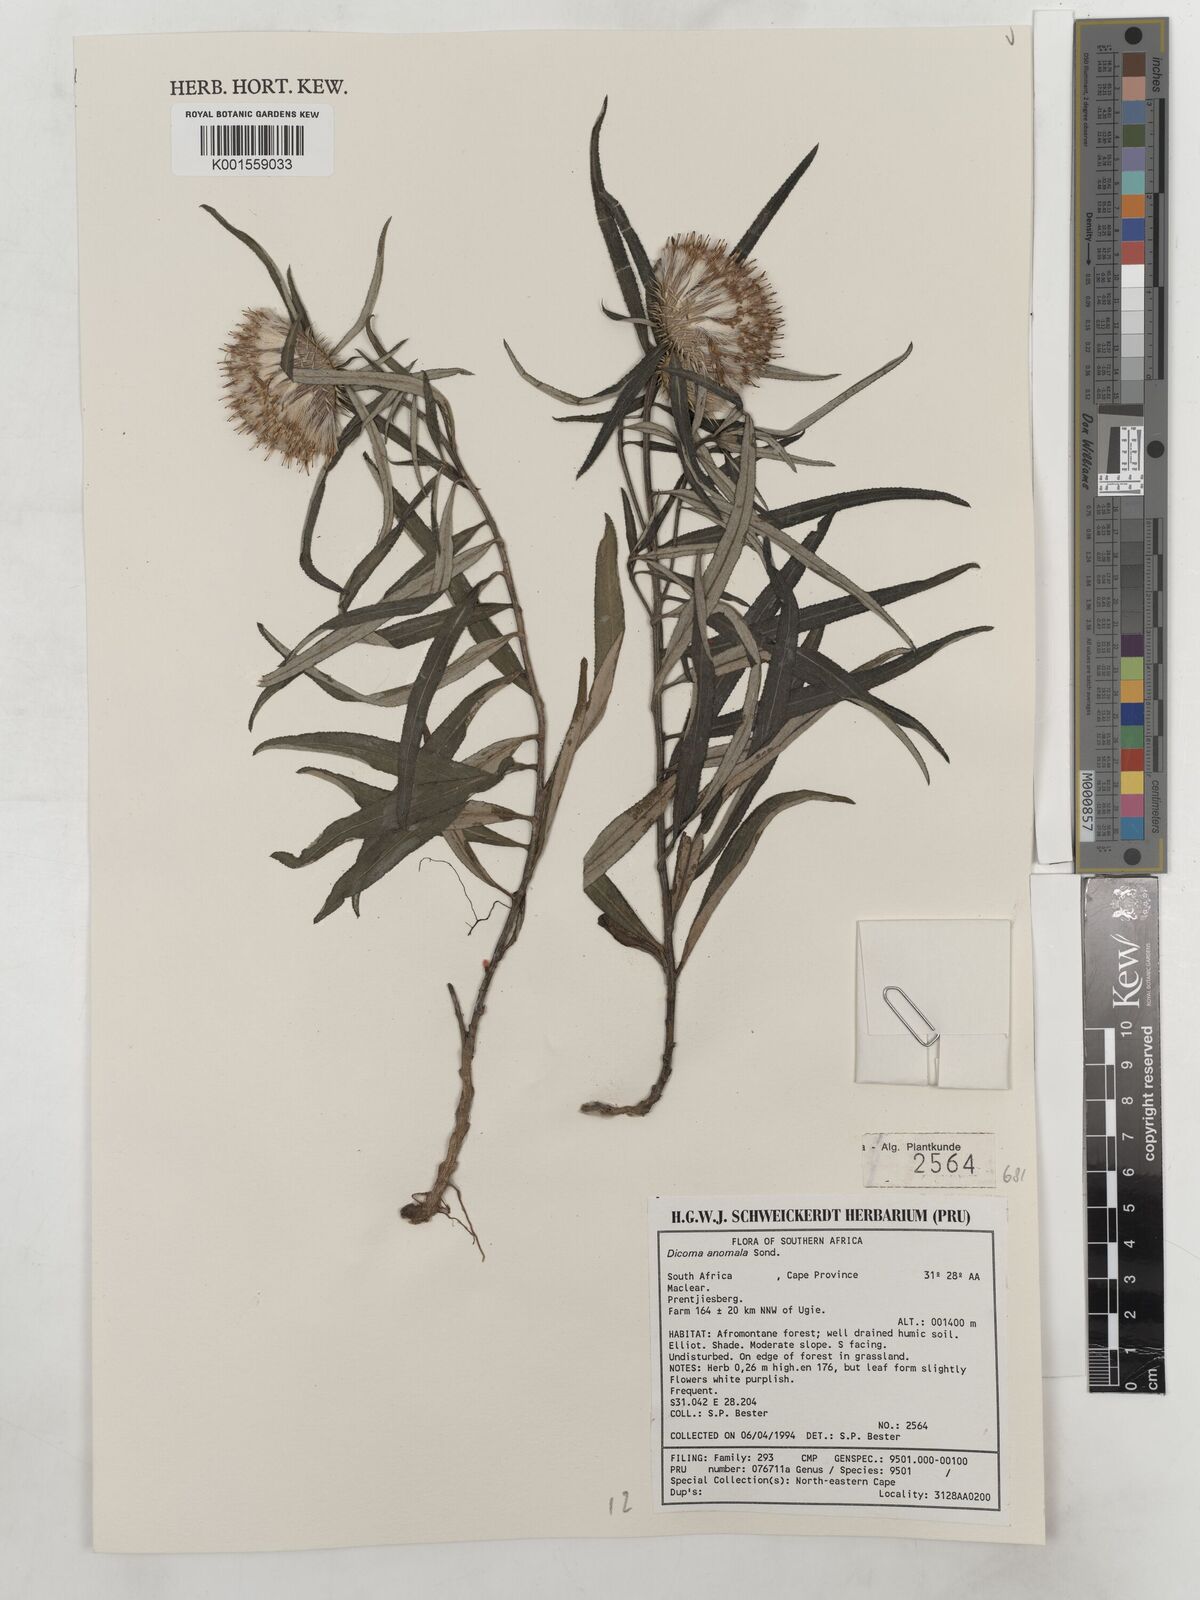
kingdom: Plantae
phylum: Tracheophyta
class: Magnoliopsida
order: Asterales
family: Asteraceae
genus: Dicoma
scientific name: Dicoma anomala
